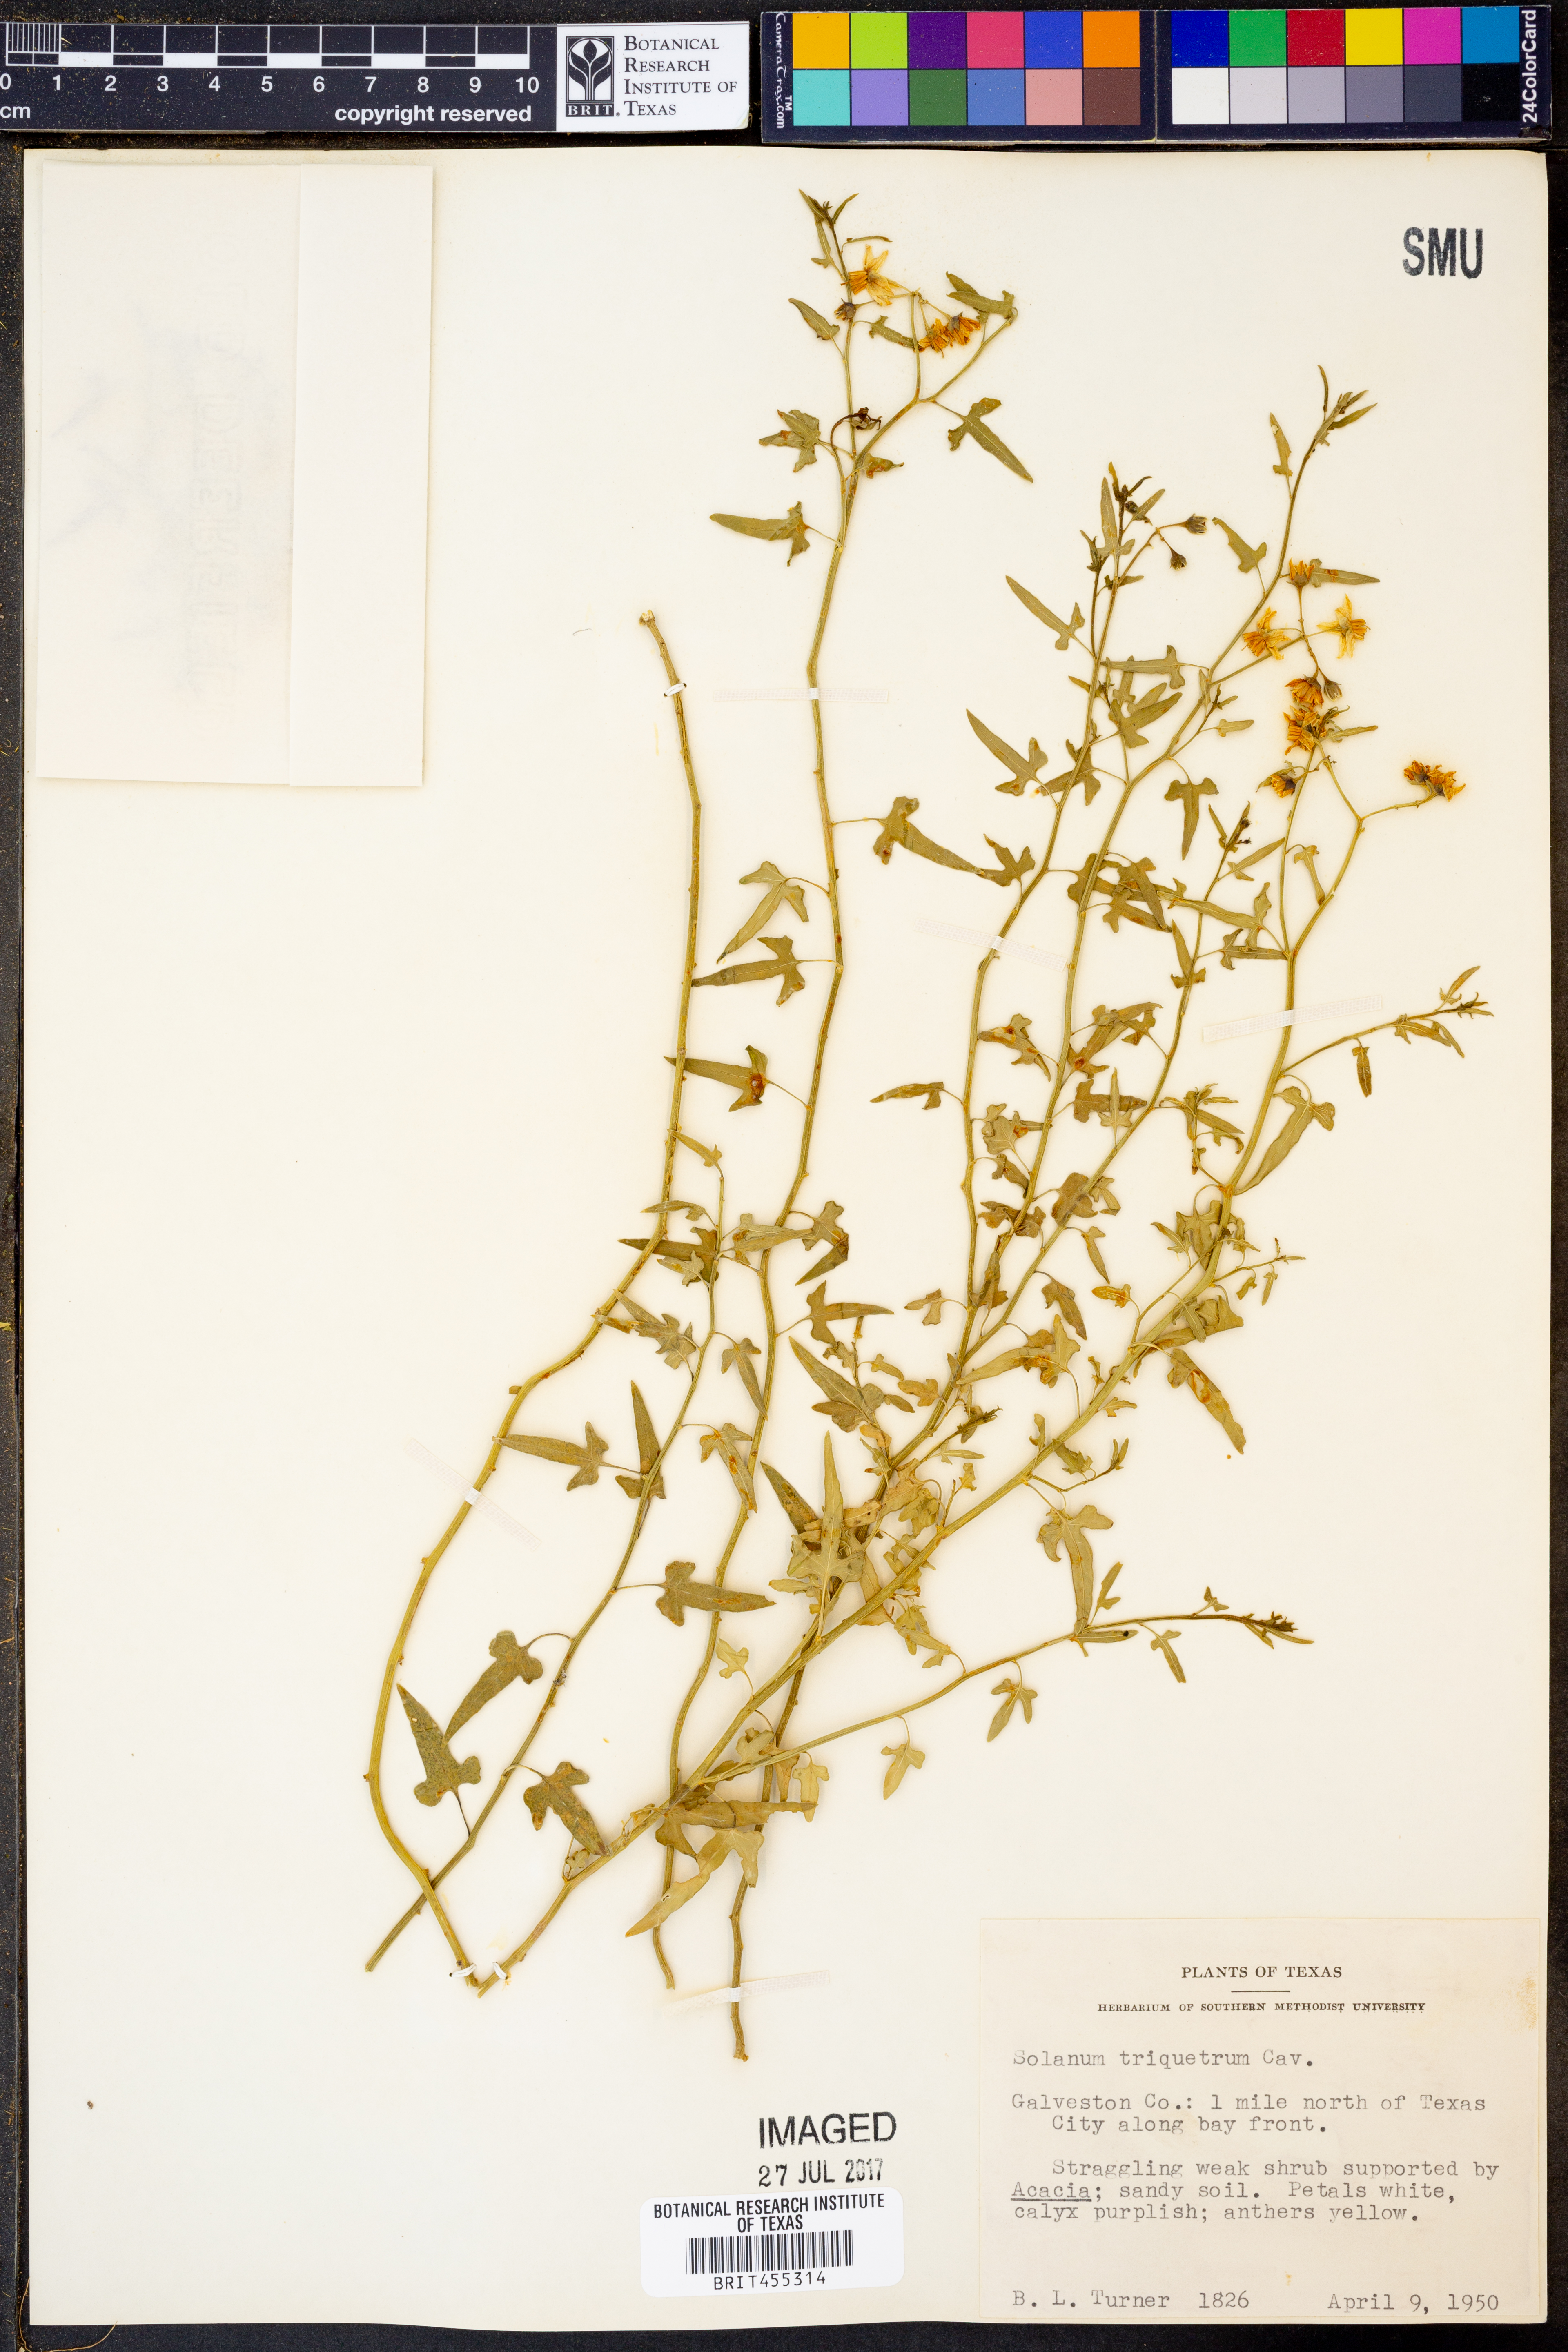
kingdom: Plantae
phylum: Tracheophyta
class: Magnoliopsida
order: Solanales
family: Solanaceae
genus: Solanum
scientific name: Solanum triquetrum
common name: Texas nightshade
